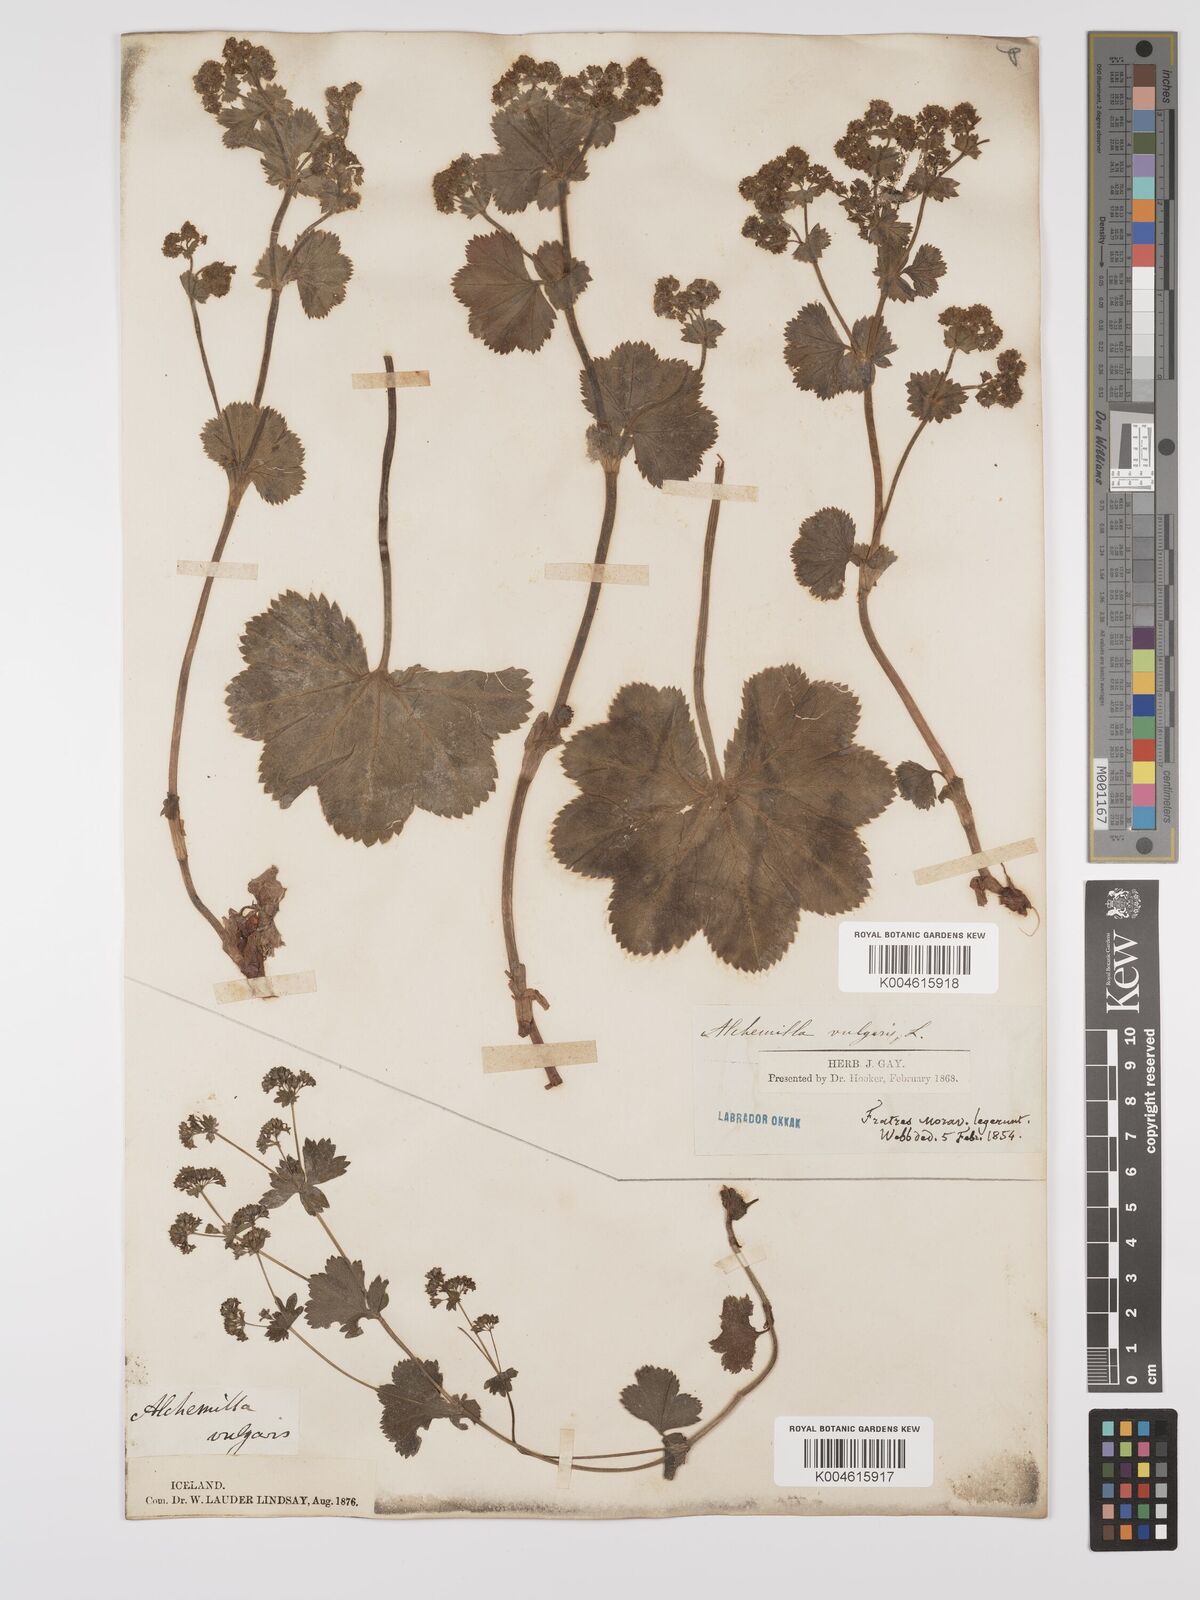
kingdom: Plantae
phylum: Tracheophyta
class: Magnoliopsida
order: Rosales
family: Rosaceae
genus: Alchemilla
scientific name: Alchemilla vulgaris
